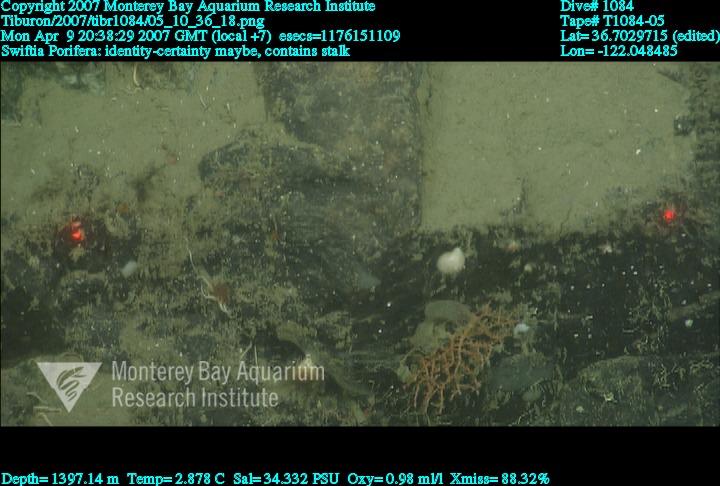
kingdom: Animalia
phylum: Porifera
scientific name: Porifera
